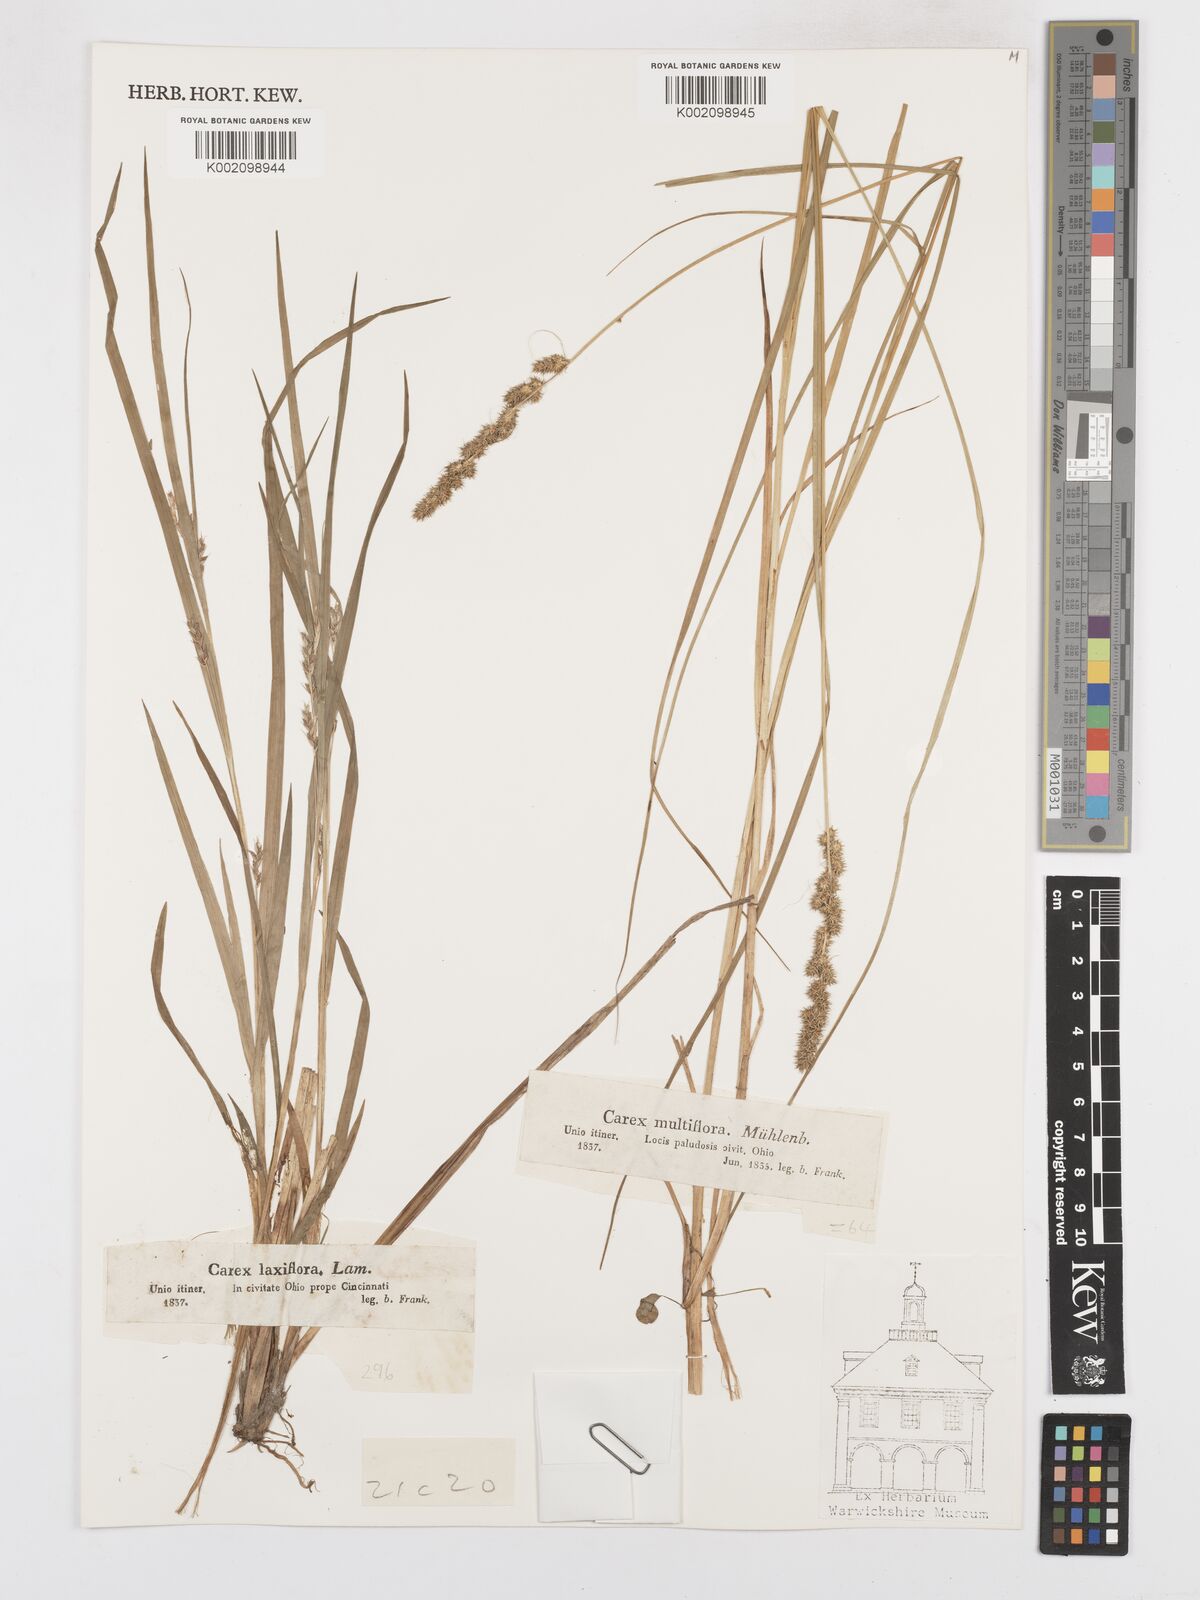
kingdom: Plantae
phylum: Tracheophyta
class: Liliopsida
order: Poales
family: Cyperaceae
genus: Carex
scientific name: Carex vulpinoidea
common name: American fox-sedge
